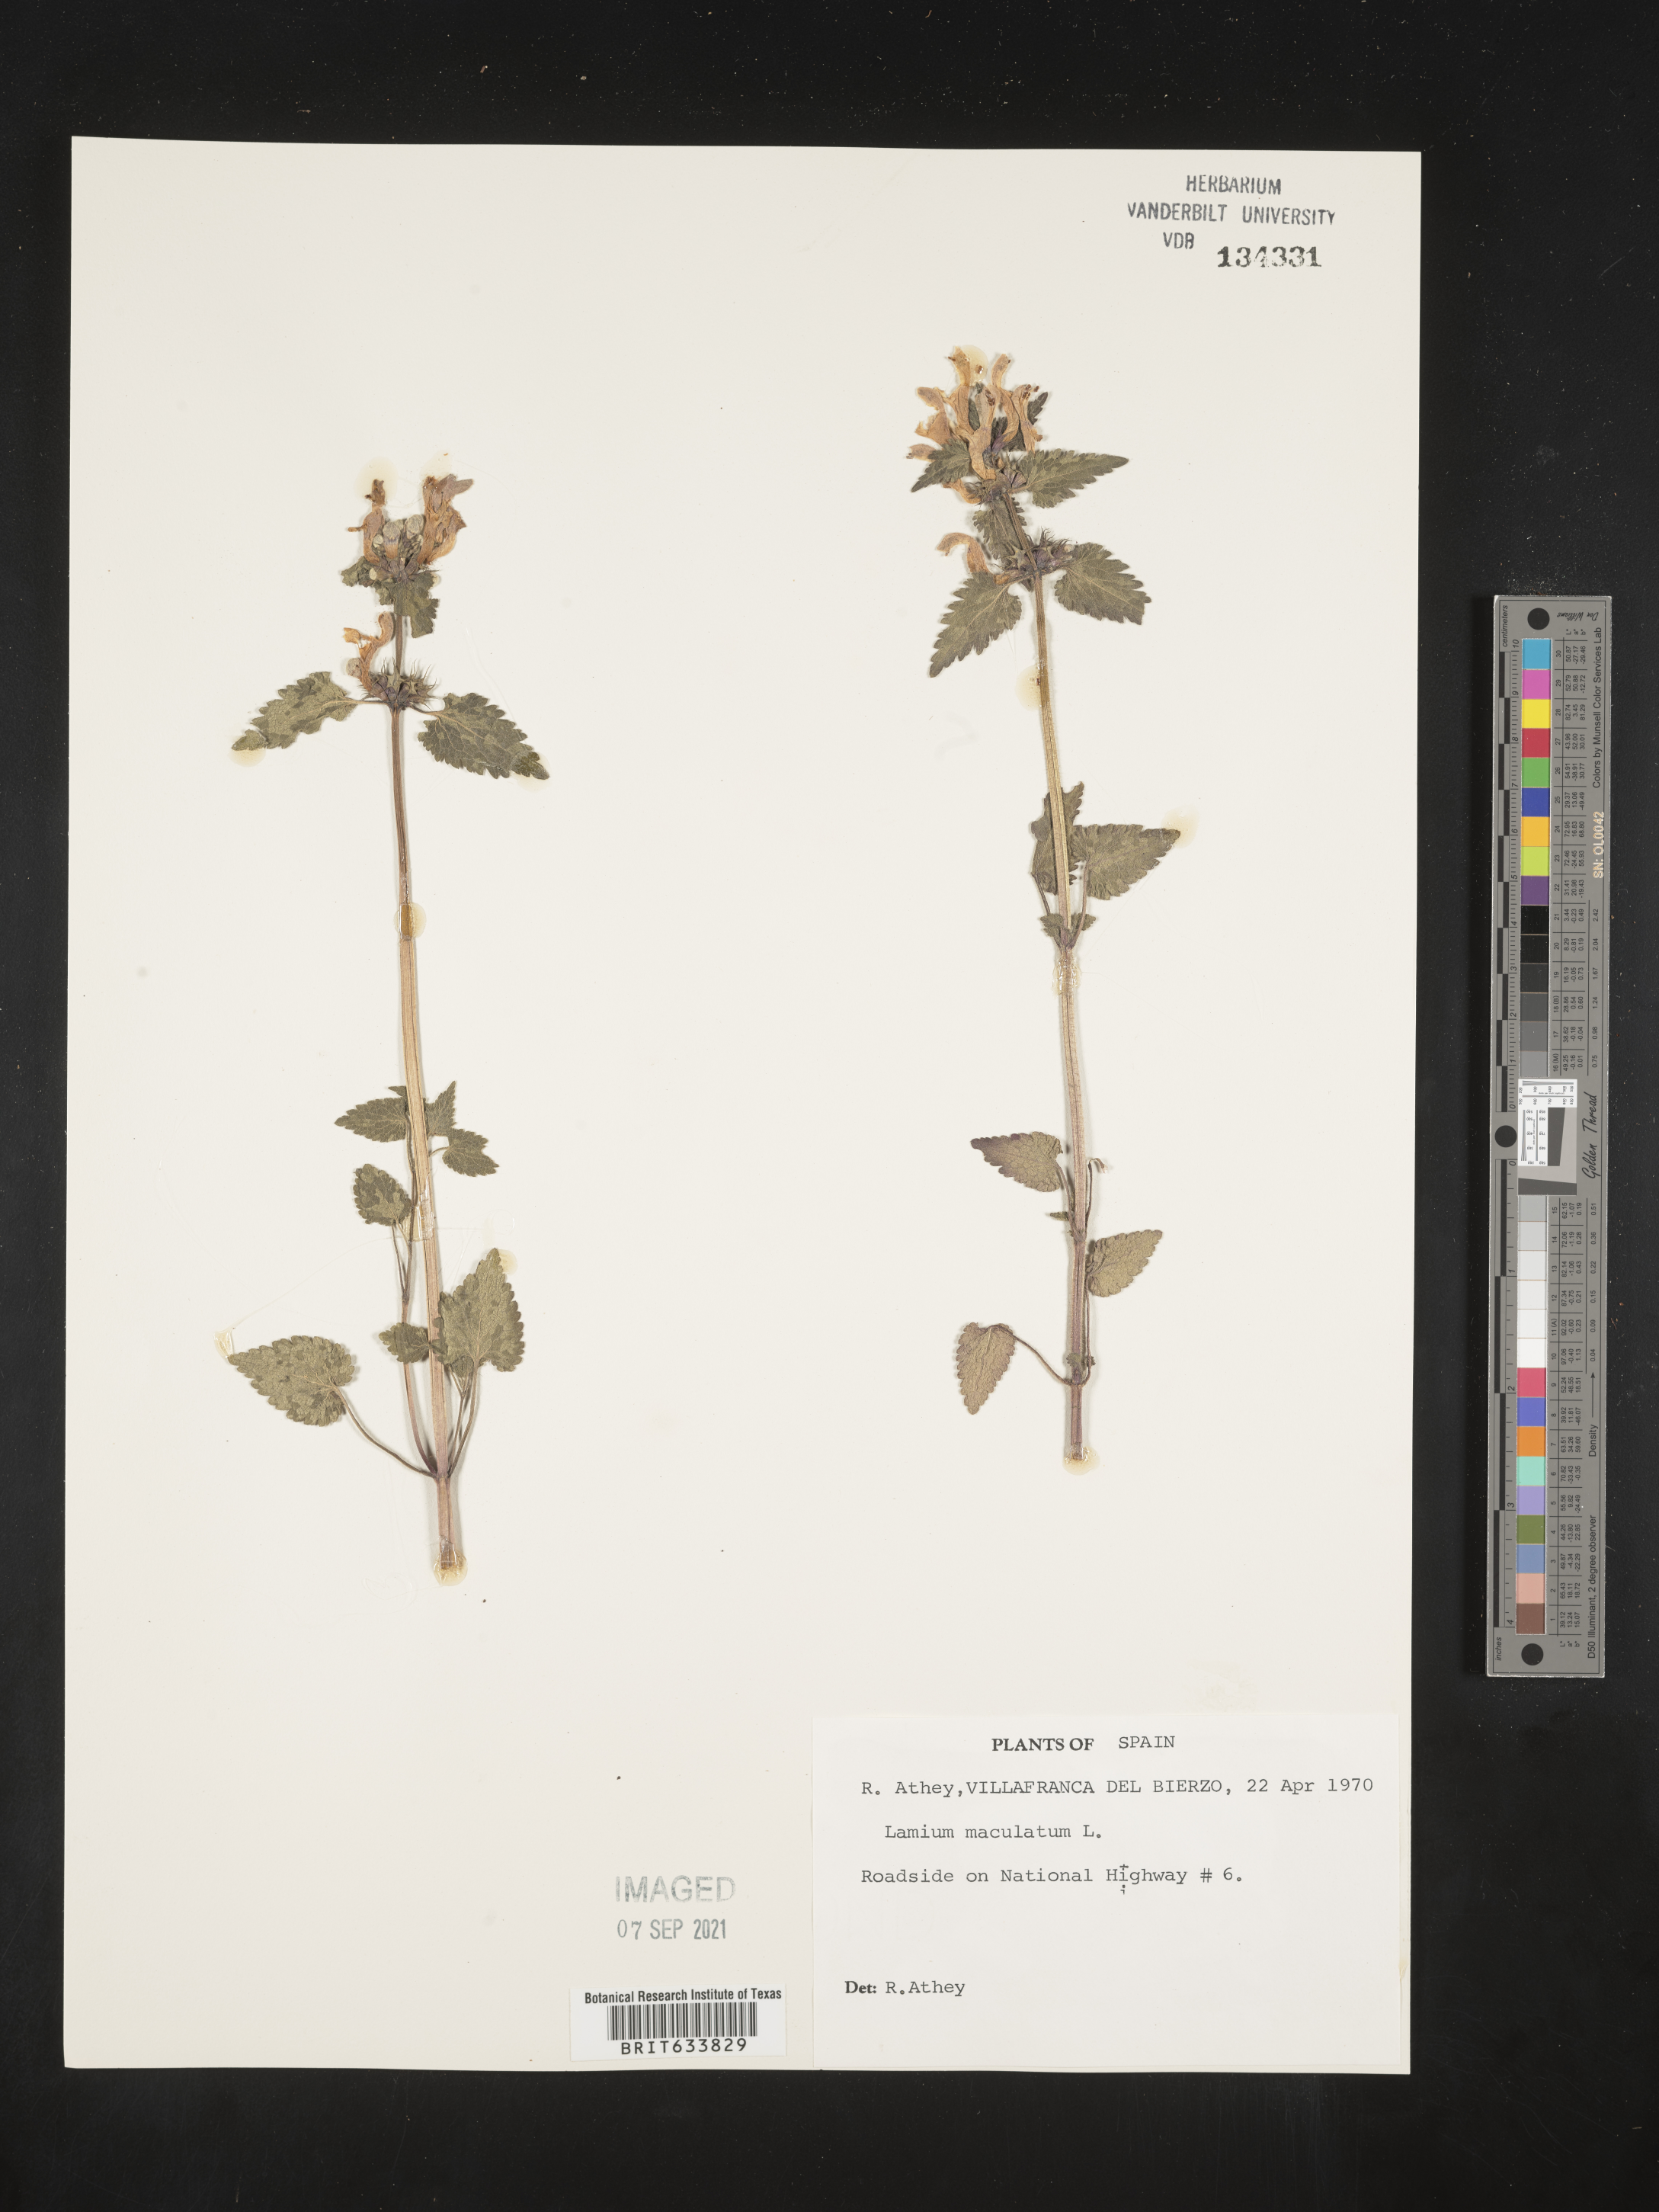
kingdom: Plantae
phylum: Tracheophyta
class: Magnoliopsida
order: Lamiales
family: Lamiaceae
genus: Lamium
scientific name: Lamium
